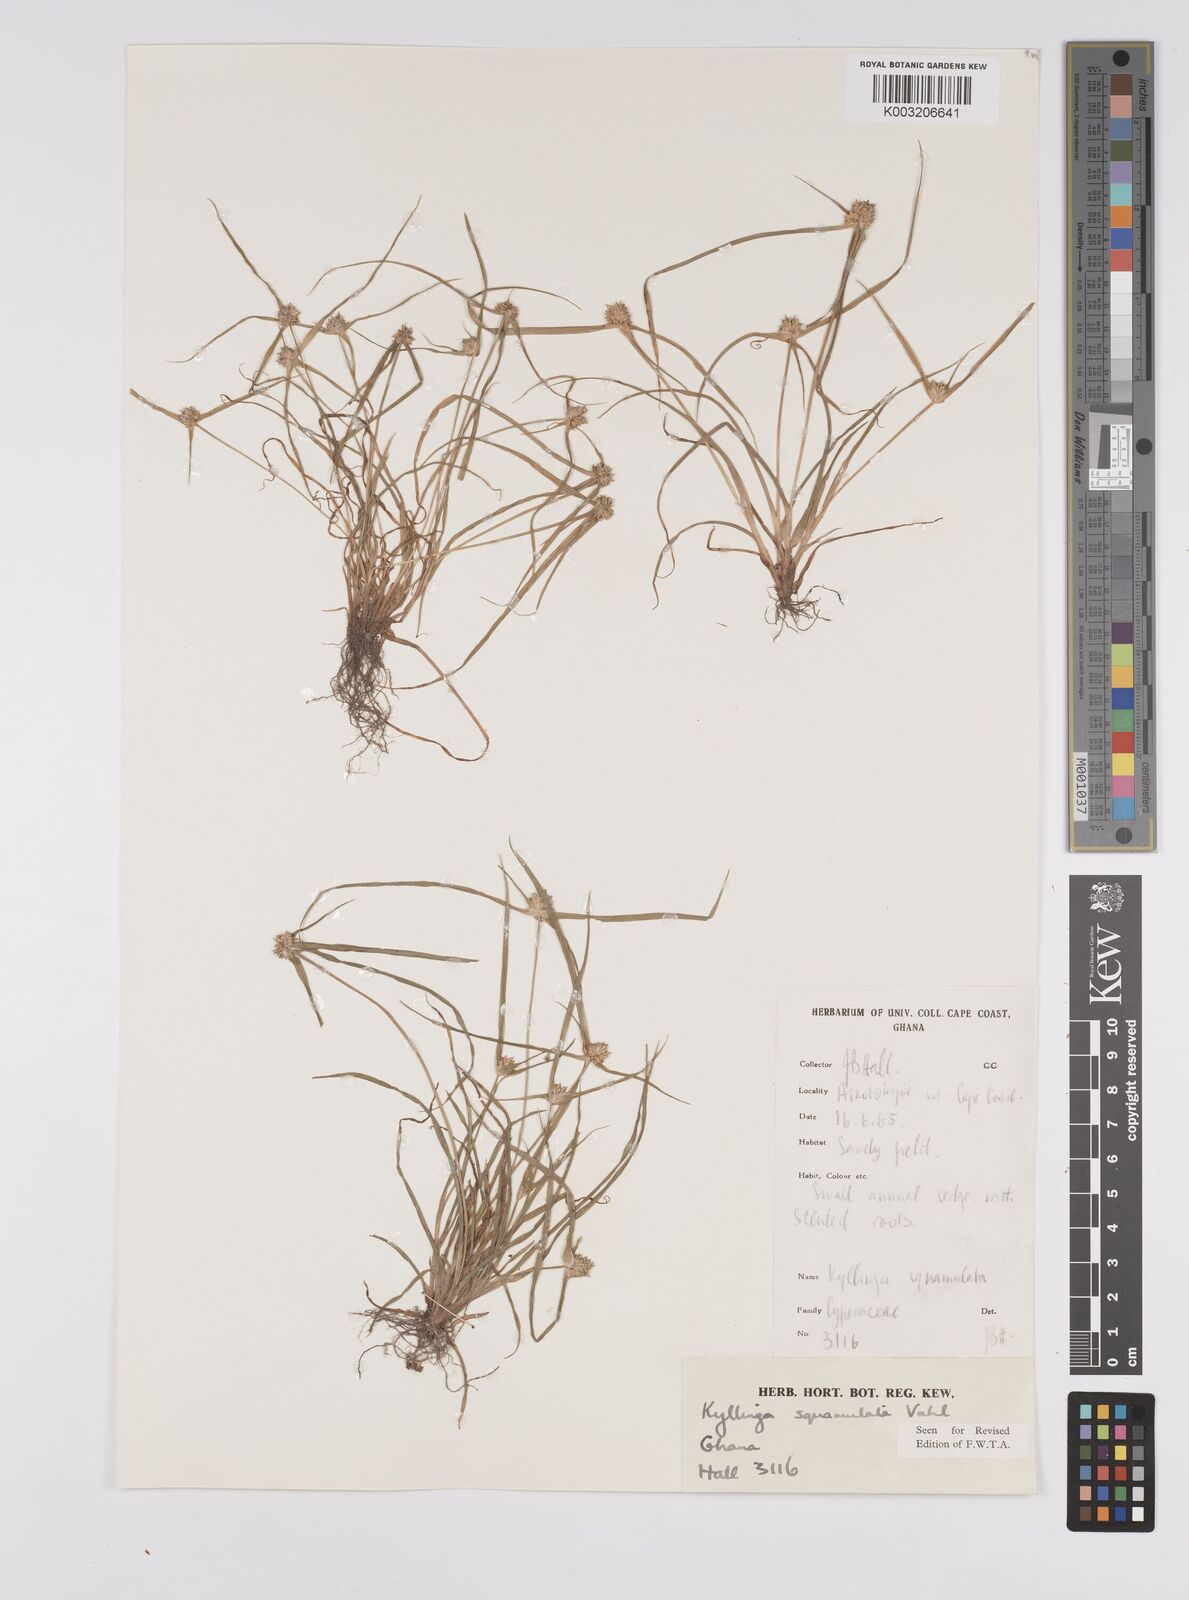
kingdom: Plantae
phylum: Tracheophyta
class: Liliopsida
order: Poales
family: Cyperaceae
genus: Cyperus
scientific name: Cyperus distans
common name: Slender cyperus
